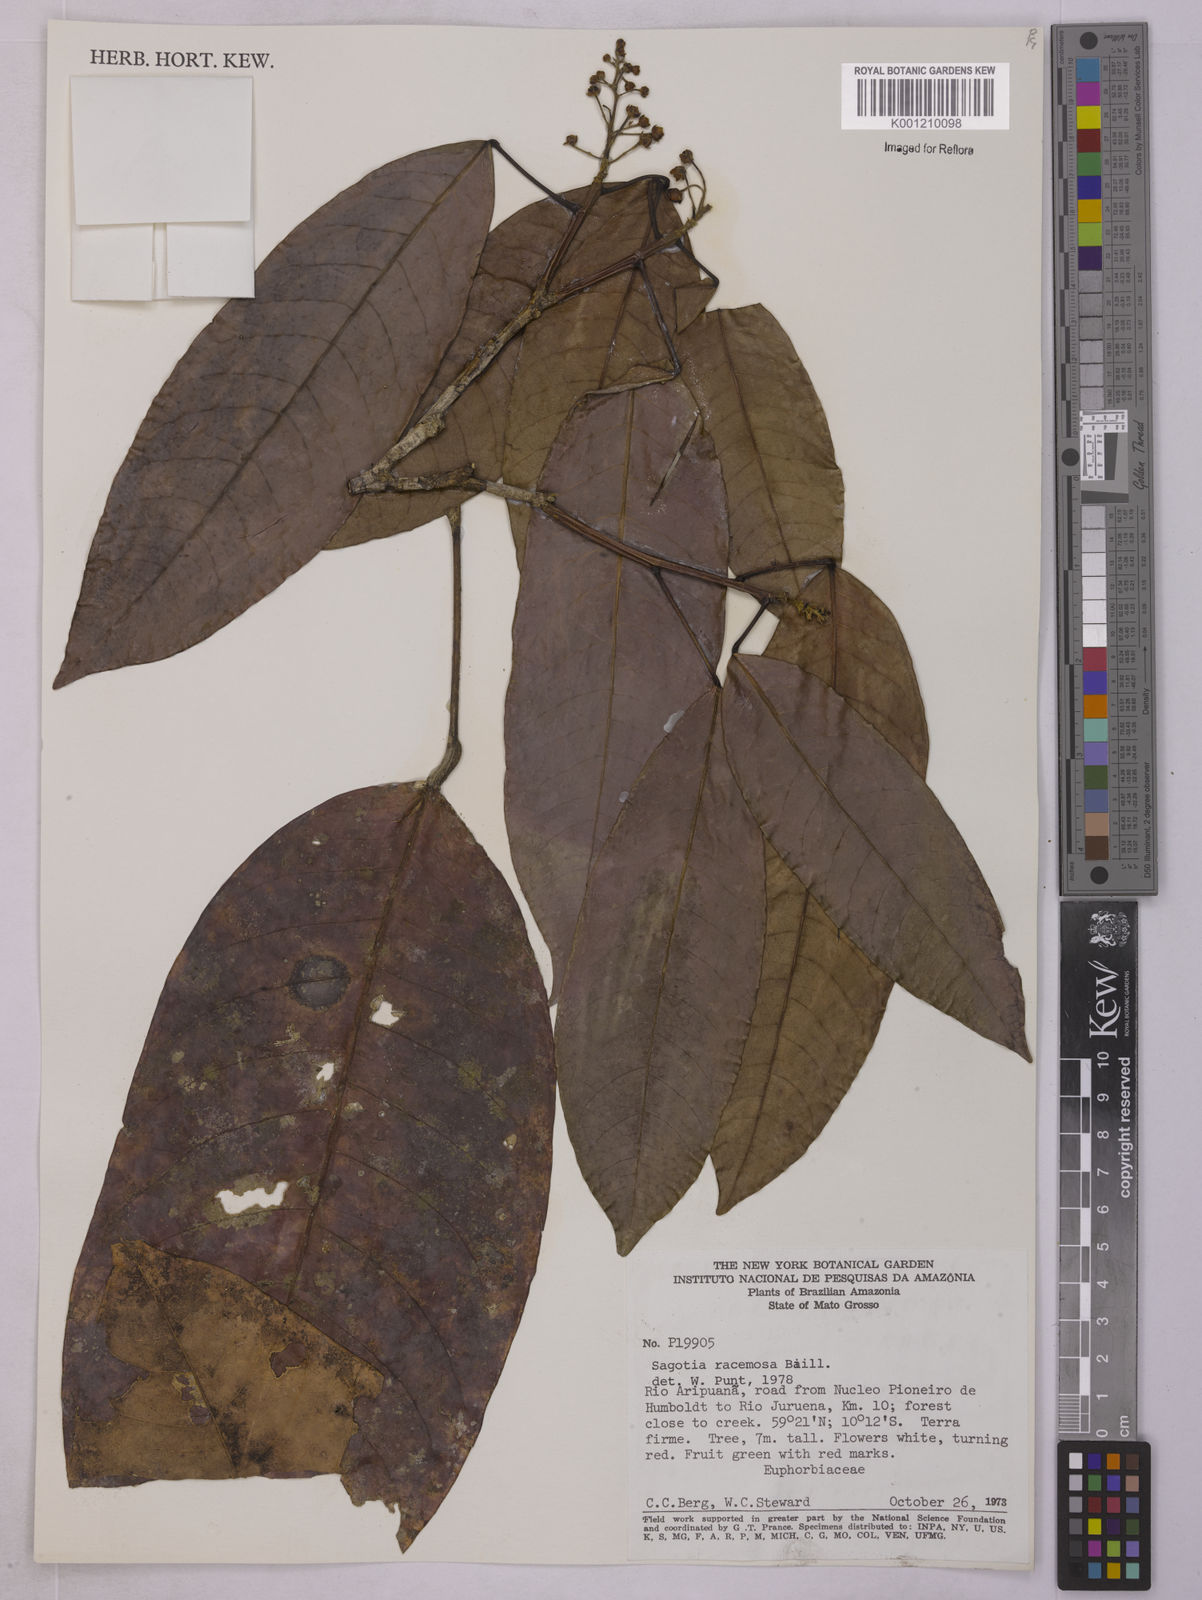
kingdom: Plantae
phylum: Tracheophyta
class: Magnoliopsida
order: Malpighiales
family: Euphorbiaceae
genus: Sagotia
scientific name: Sagotia racemosa
